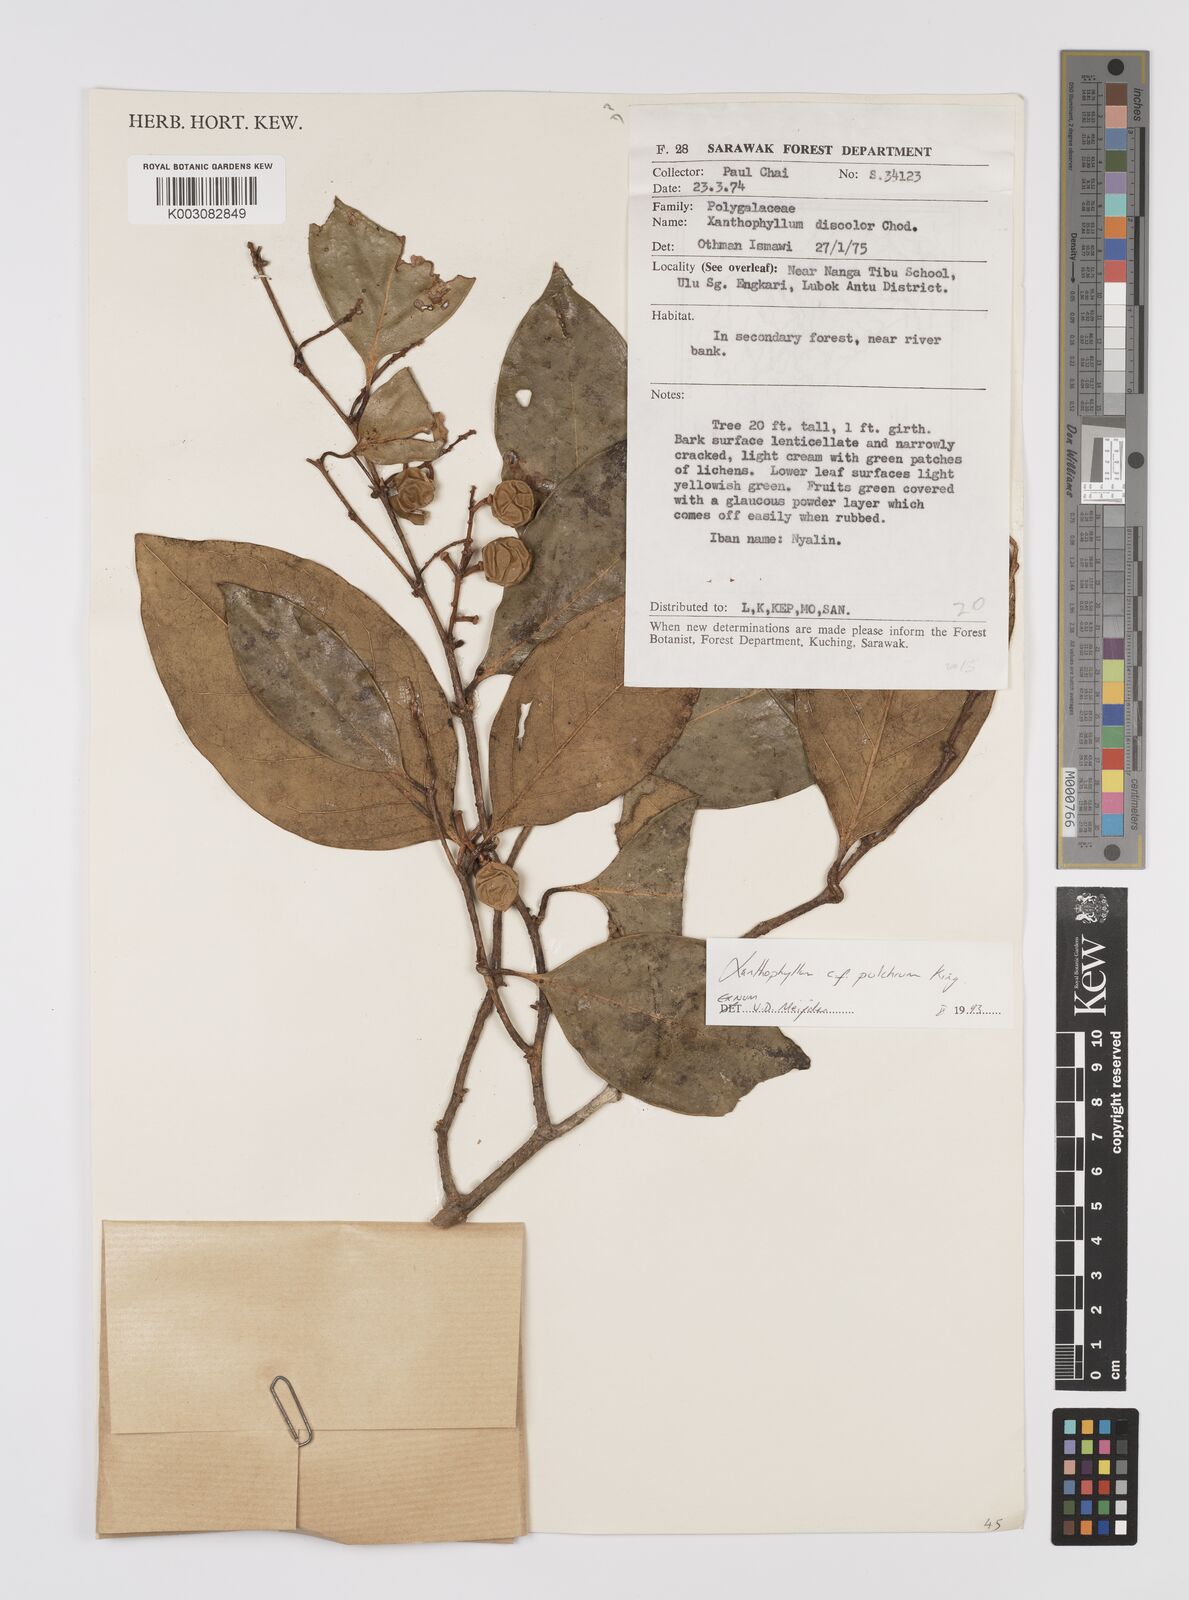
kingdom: Plantae
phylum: Tracheophyta
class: Magnoliopsida
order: Fabales
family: Polygalaceae
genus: Xanthophyllum
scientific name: Xanthophyllum pulchrum
